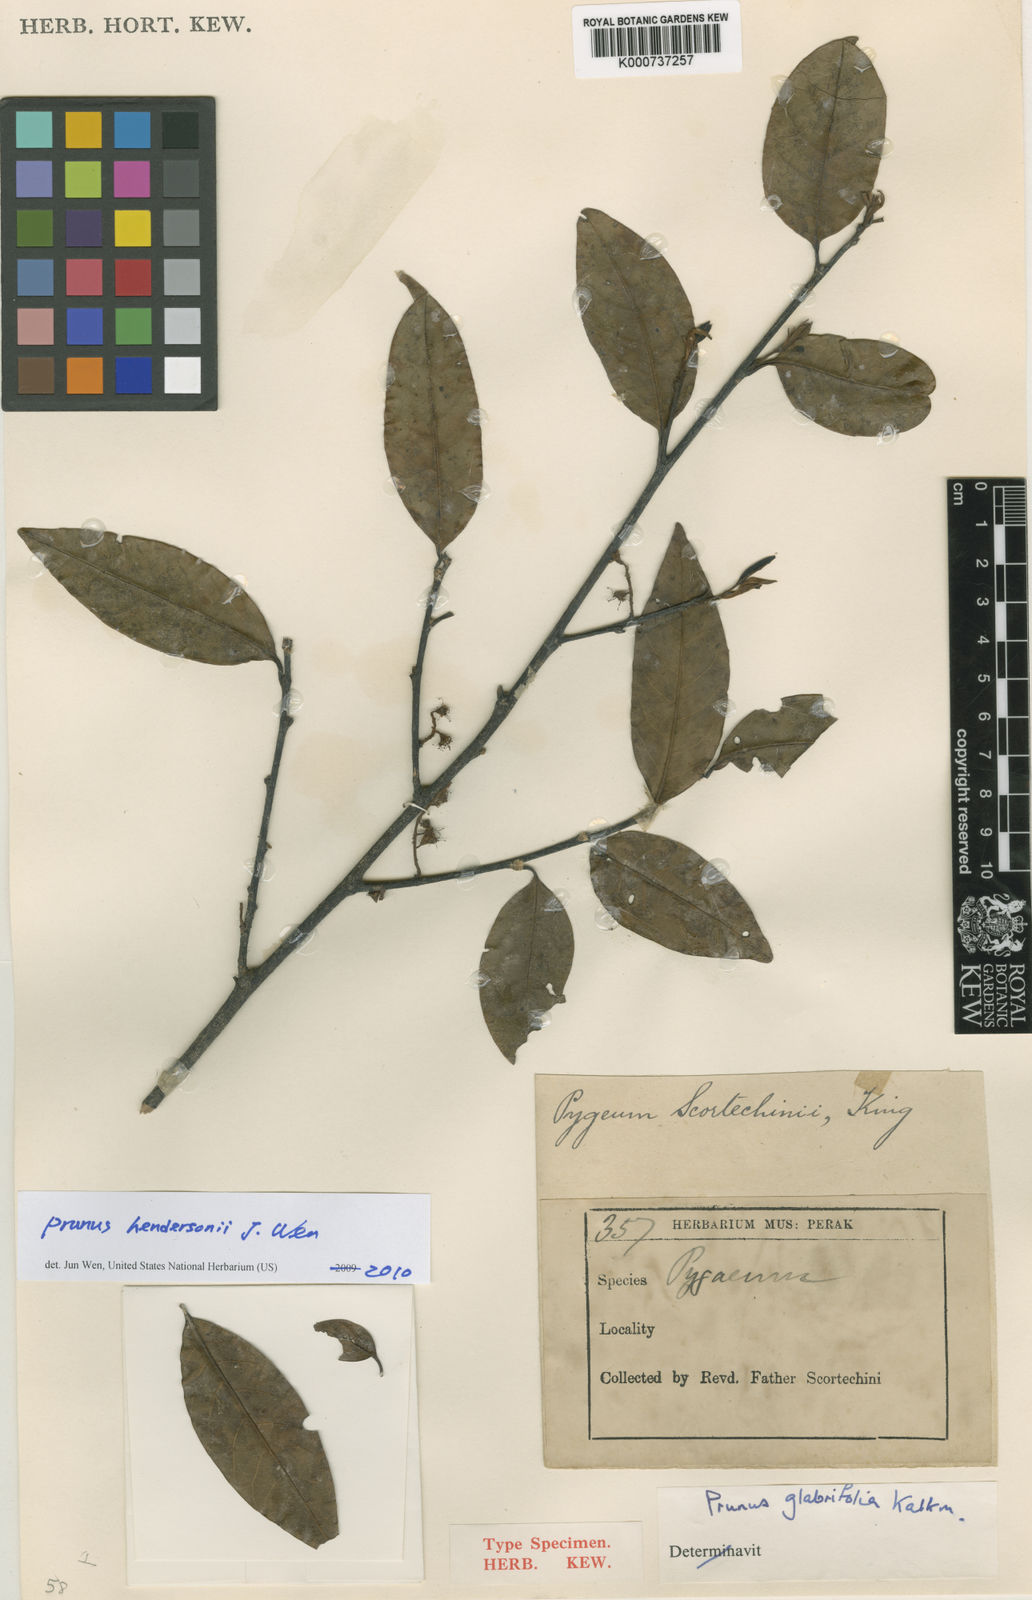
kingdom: Plantae
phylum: Tracheophyta
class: Magnoliopsida
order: Rosales
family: Rosaceae
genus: Prunus
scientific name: Prunus
